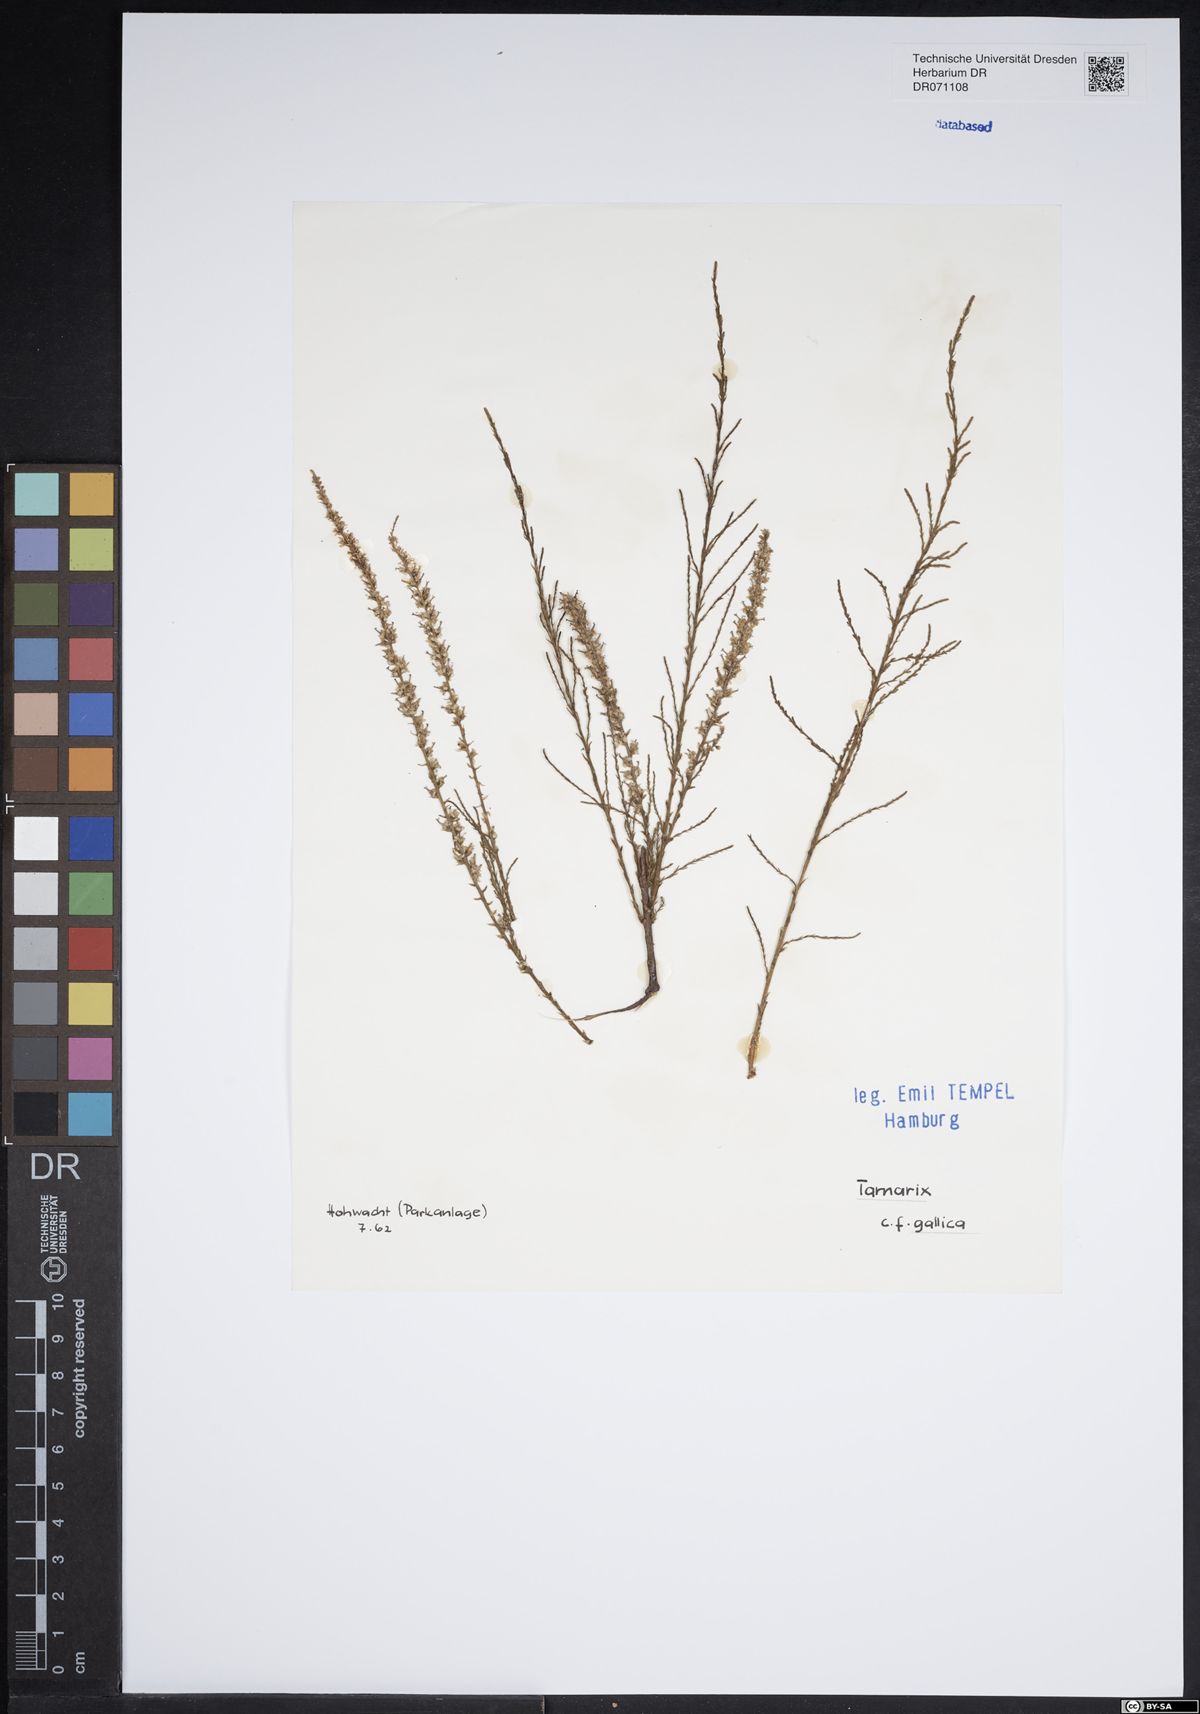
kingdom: Plantae
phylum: Tracheophyta
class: Magnoliopsida
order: Caryophyllales
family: Tamaricaceae
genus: Tamarix
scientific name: Tamarix gallica
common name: Tamarisk
